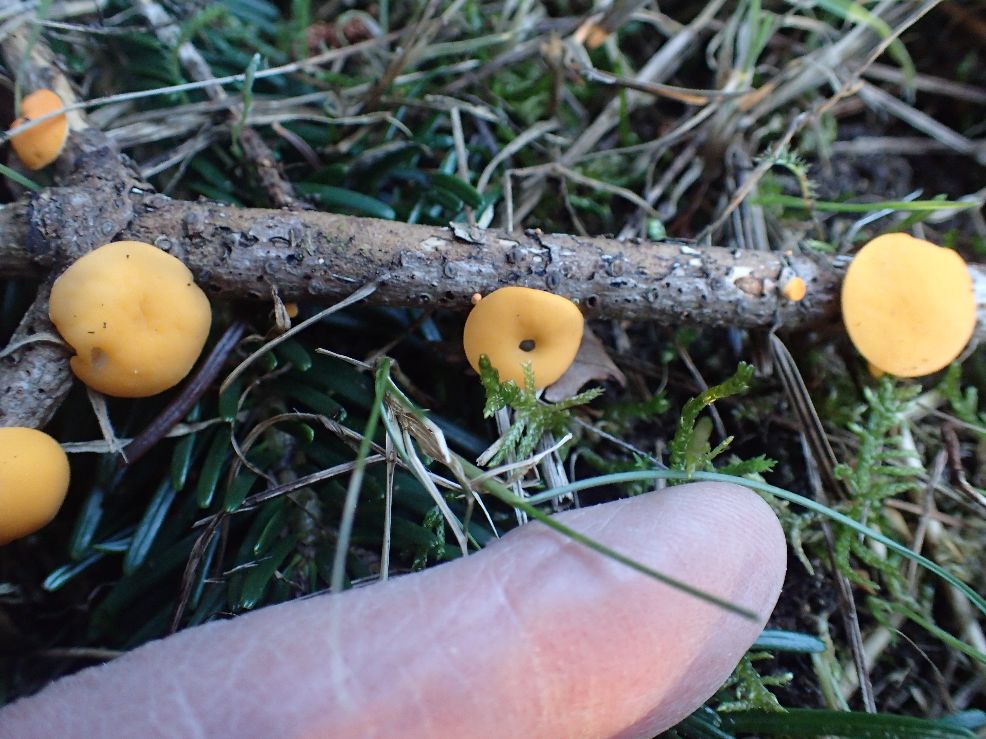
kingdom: Fungi
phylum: Ascomycota
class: Pezizomycetes
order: Pezizales
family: Sarcoscyphaceae
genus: Pithya
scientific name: Pithya vulgaris
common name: stor dukatbæger
